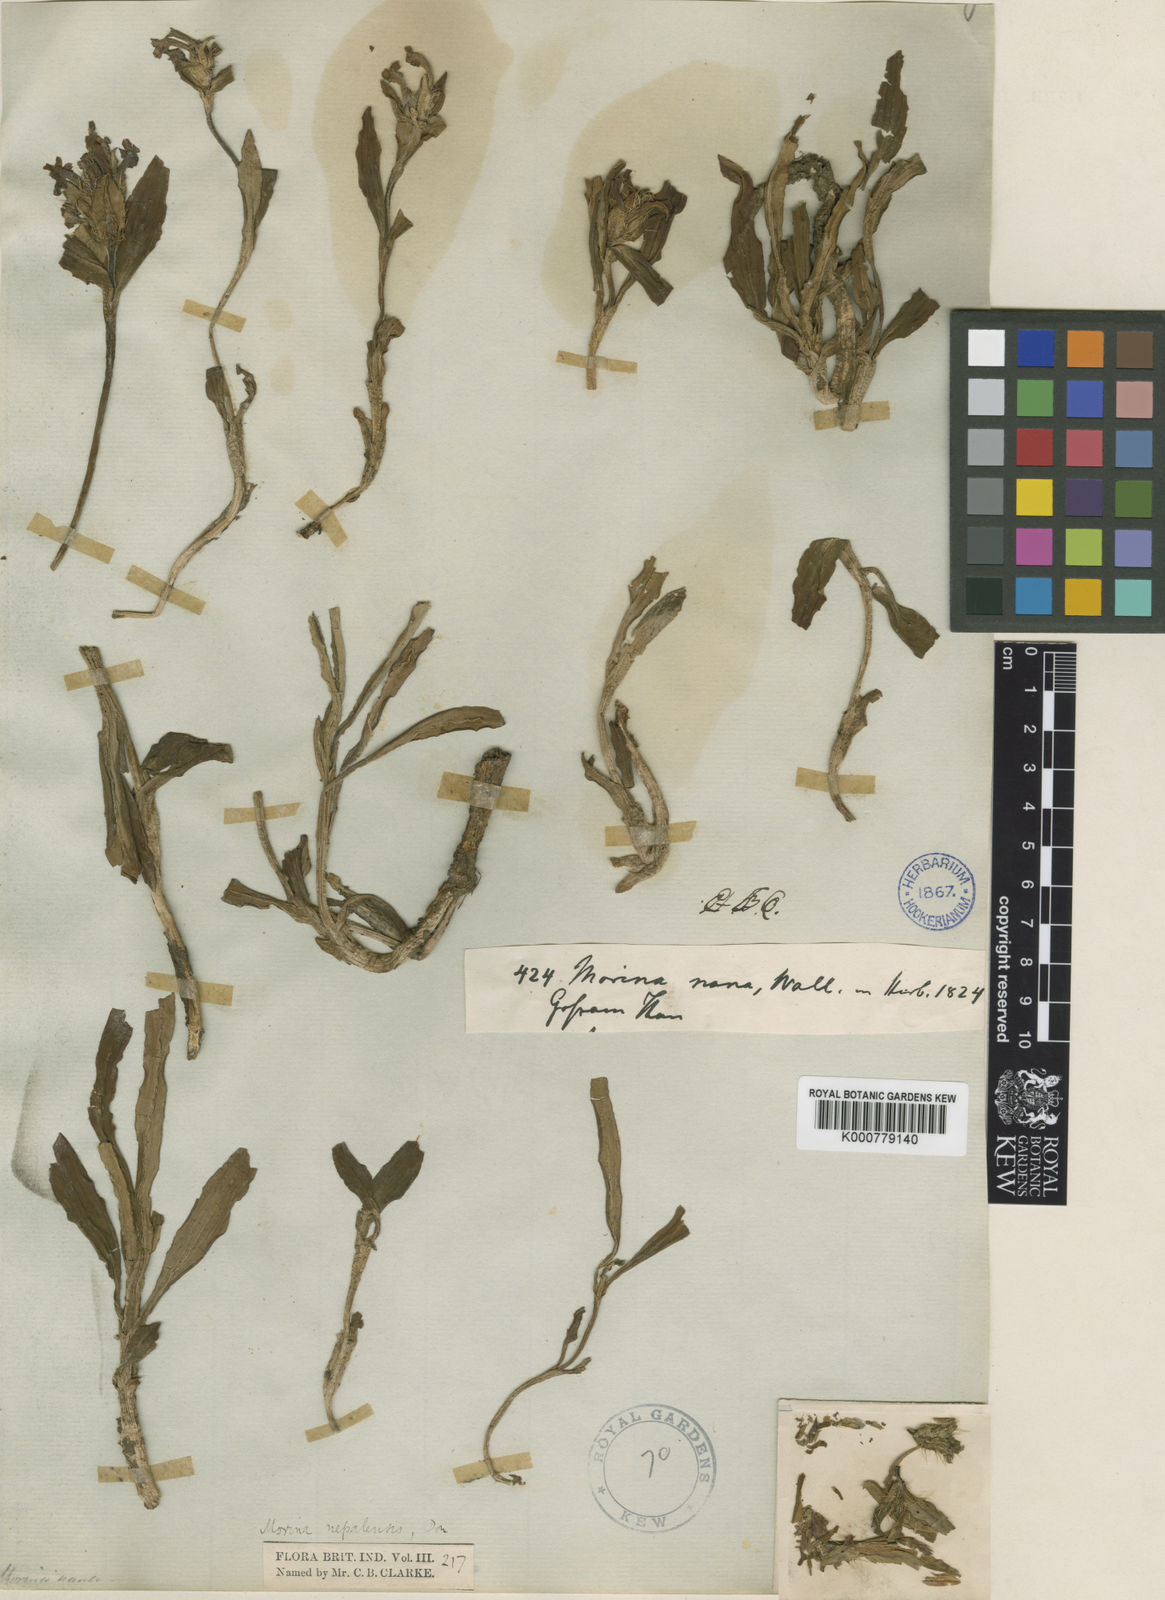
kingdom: Plantae
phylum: Tracheophyta
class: Magnoliopsida
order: Dipsacales
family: Caprifoliaceae
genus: Acanthocalyx
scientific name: Acanthocalyx nepalensis
